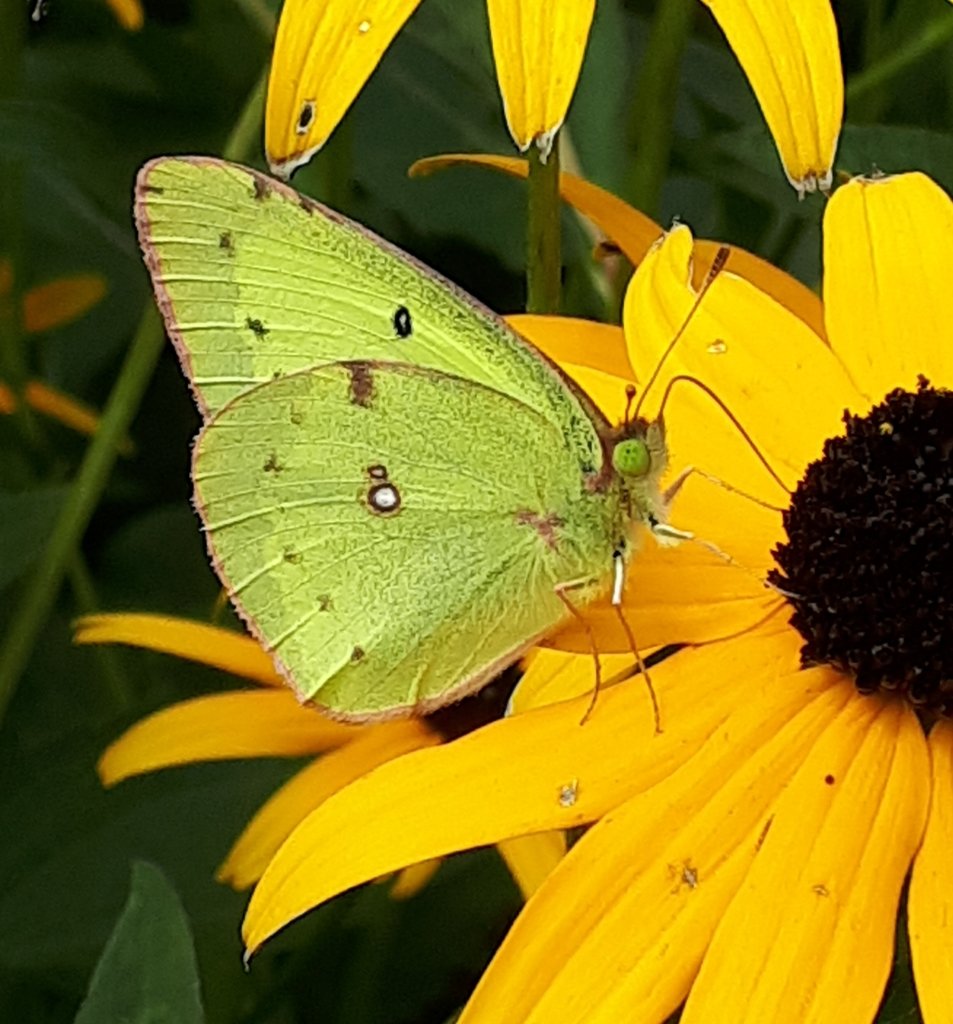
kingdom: Animalia
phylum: Arthropoda
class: Insecta
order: Lepidoptera
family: Pieridae
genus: Colias
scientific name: Colias philodice
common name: Clouded Sulphur
